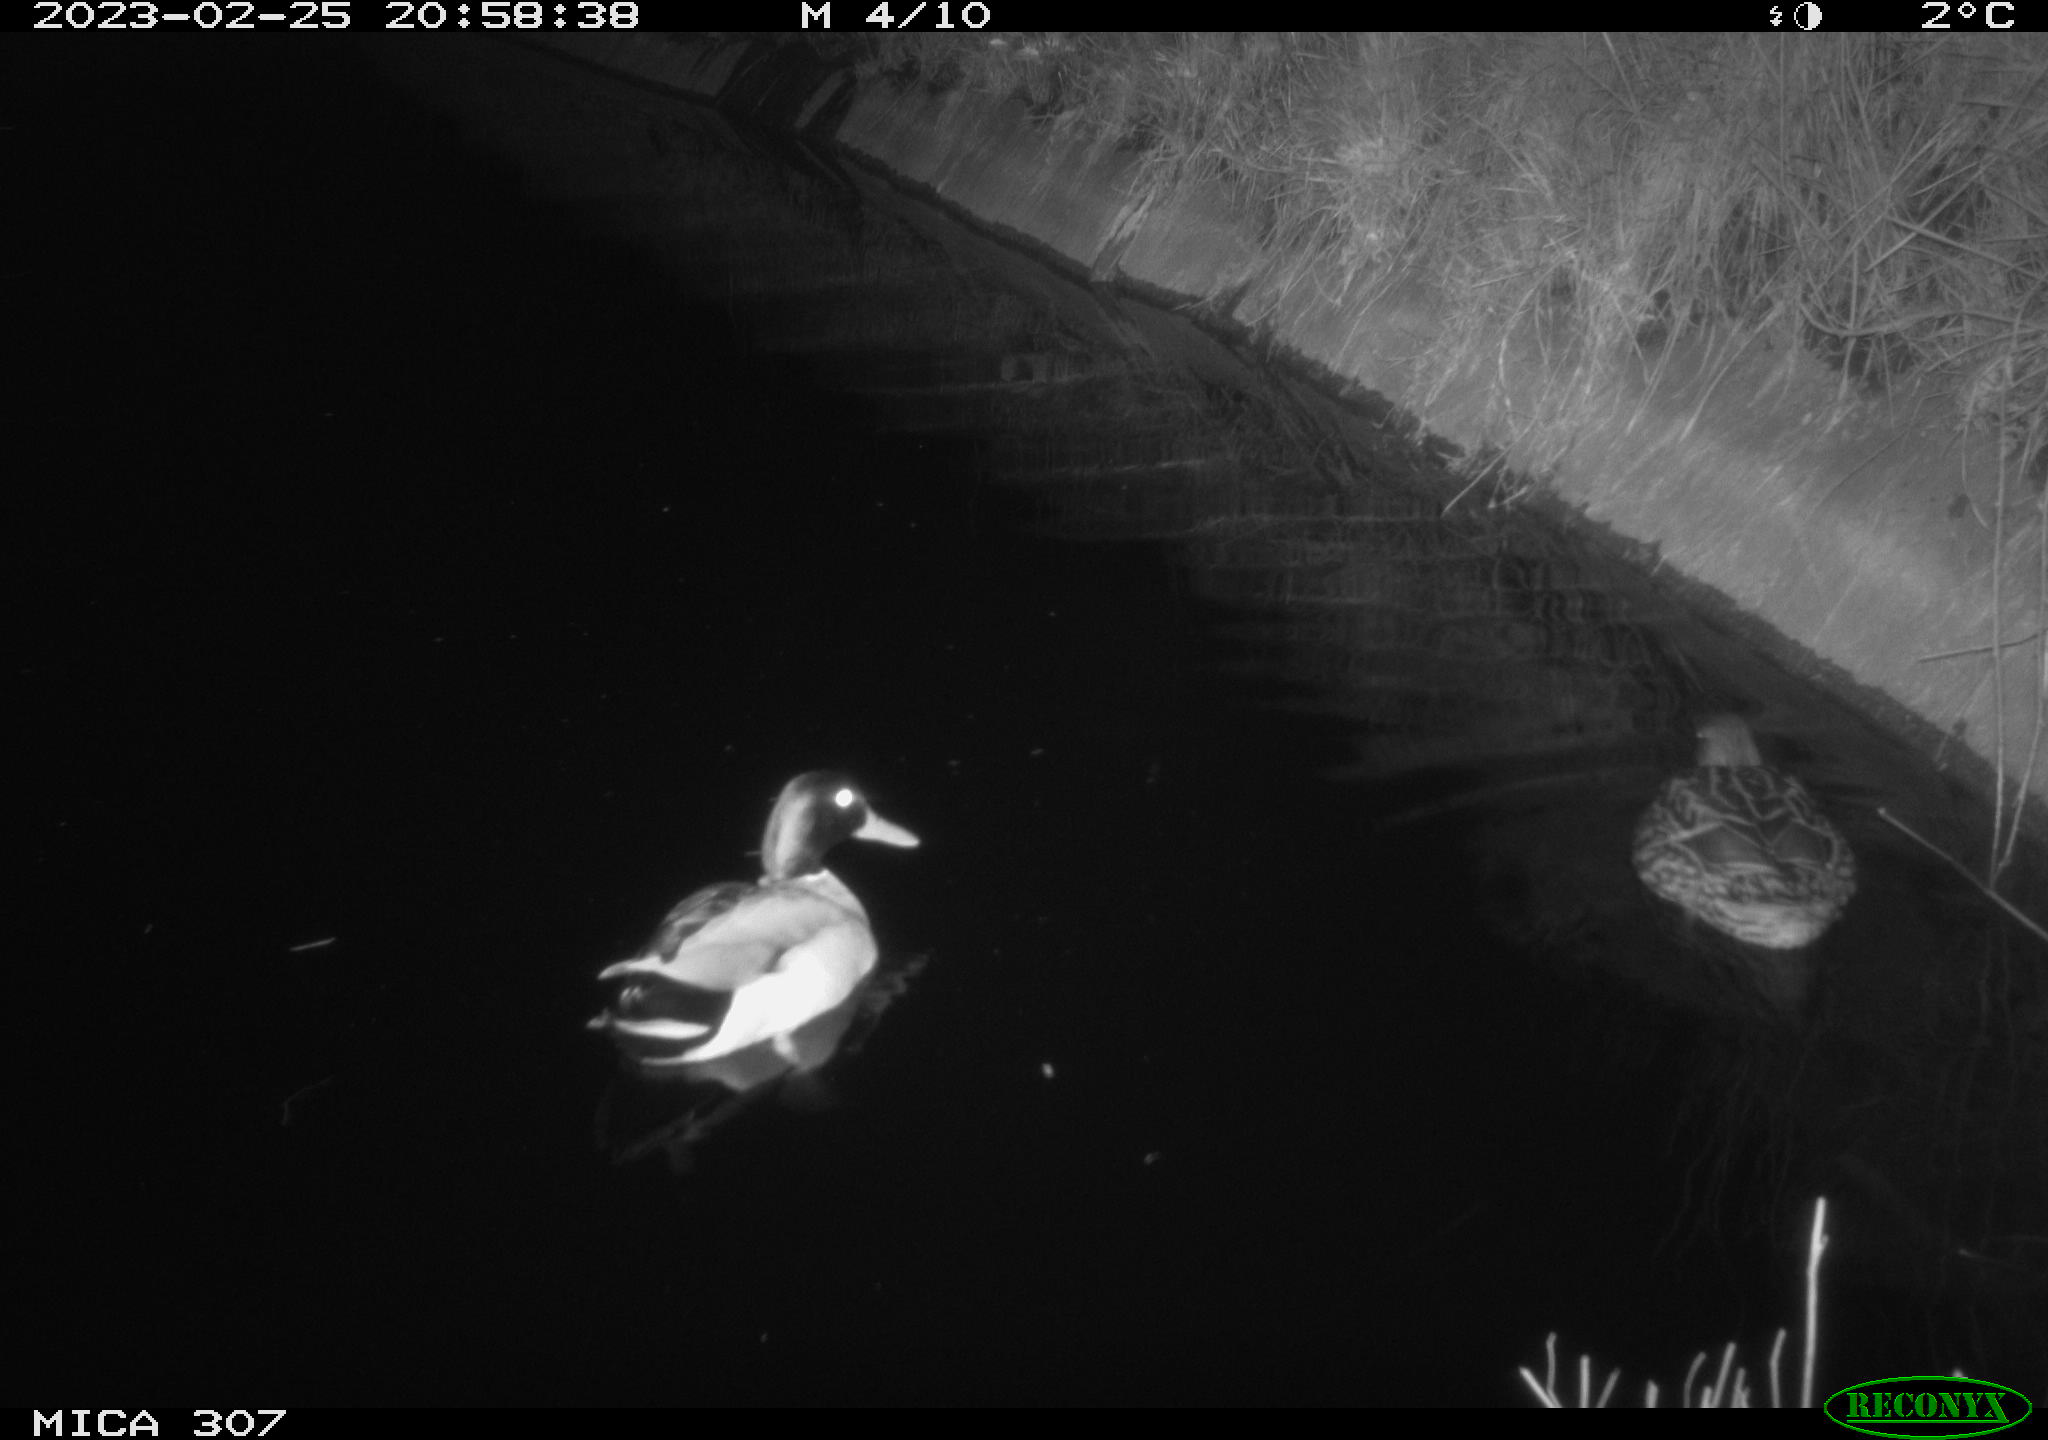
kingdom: Animalia
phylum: Chordata
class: Aves
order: Anseriformes
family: Anatidae
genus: Anas
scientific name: Anas
